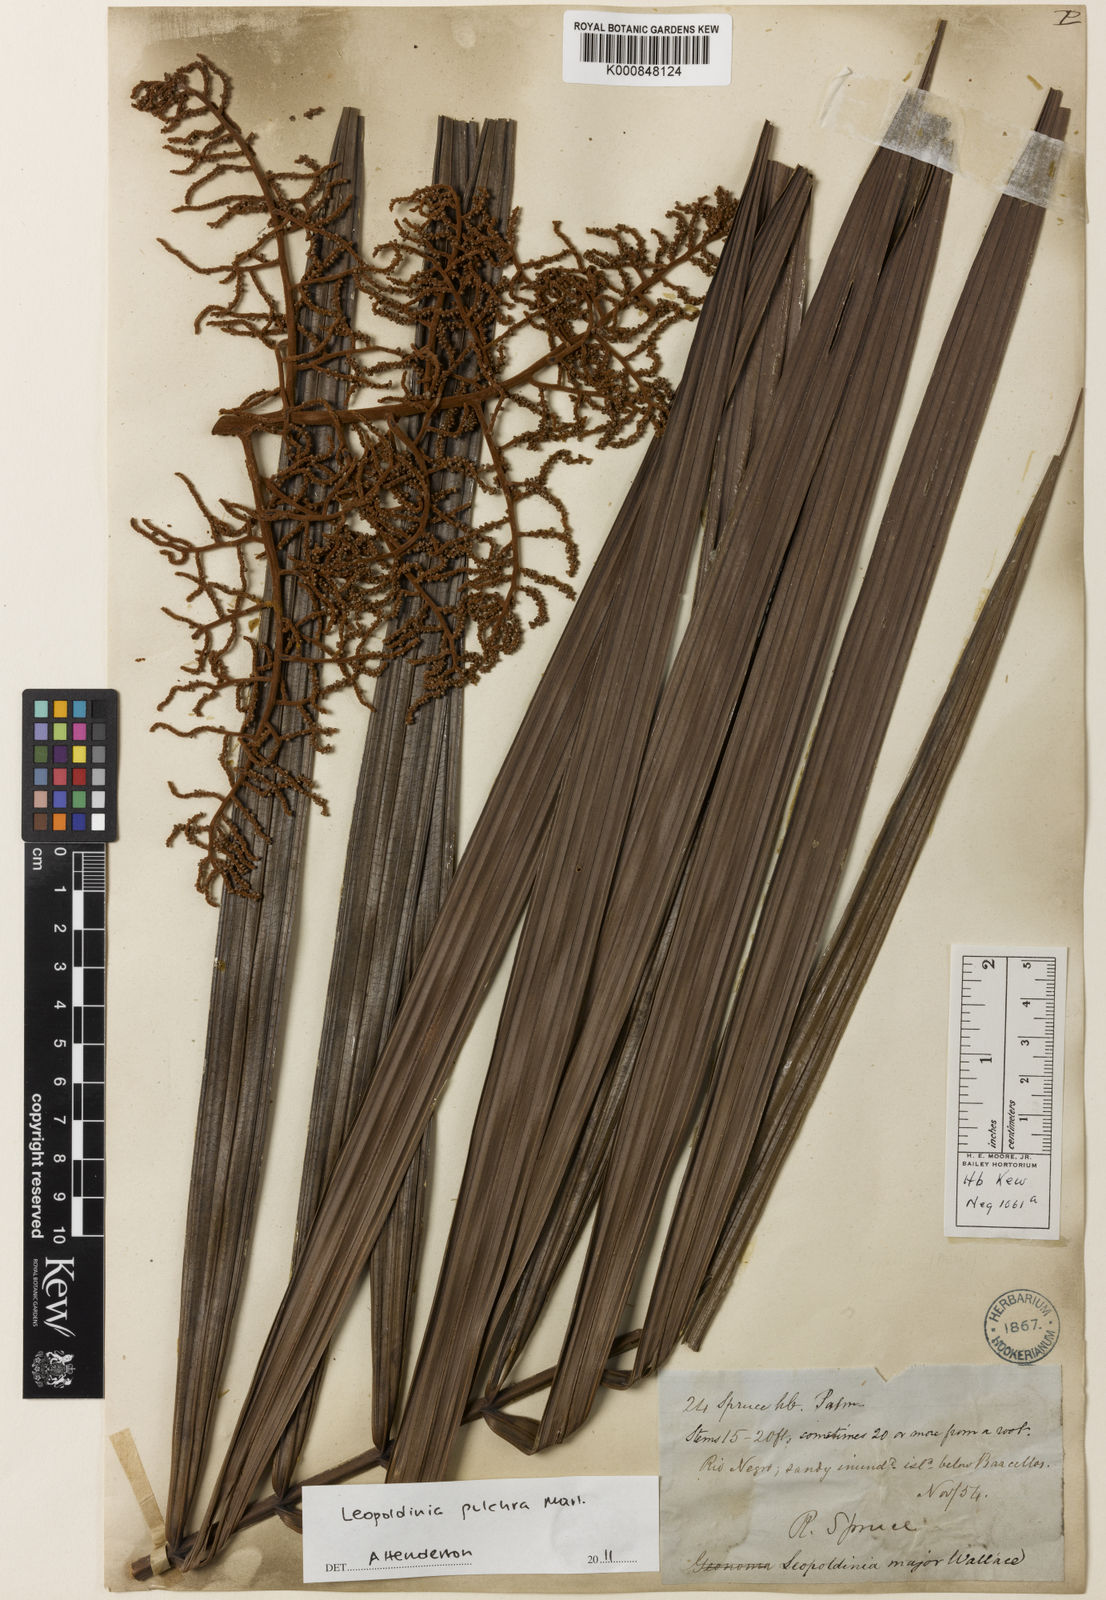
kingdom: Plantae
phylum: Tracheophyta
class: Liliopsida
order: Arecales
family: Arecaceae
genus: Leopoldinia
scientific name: Leopoldinia pulchra
